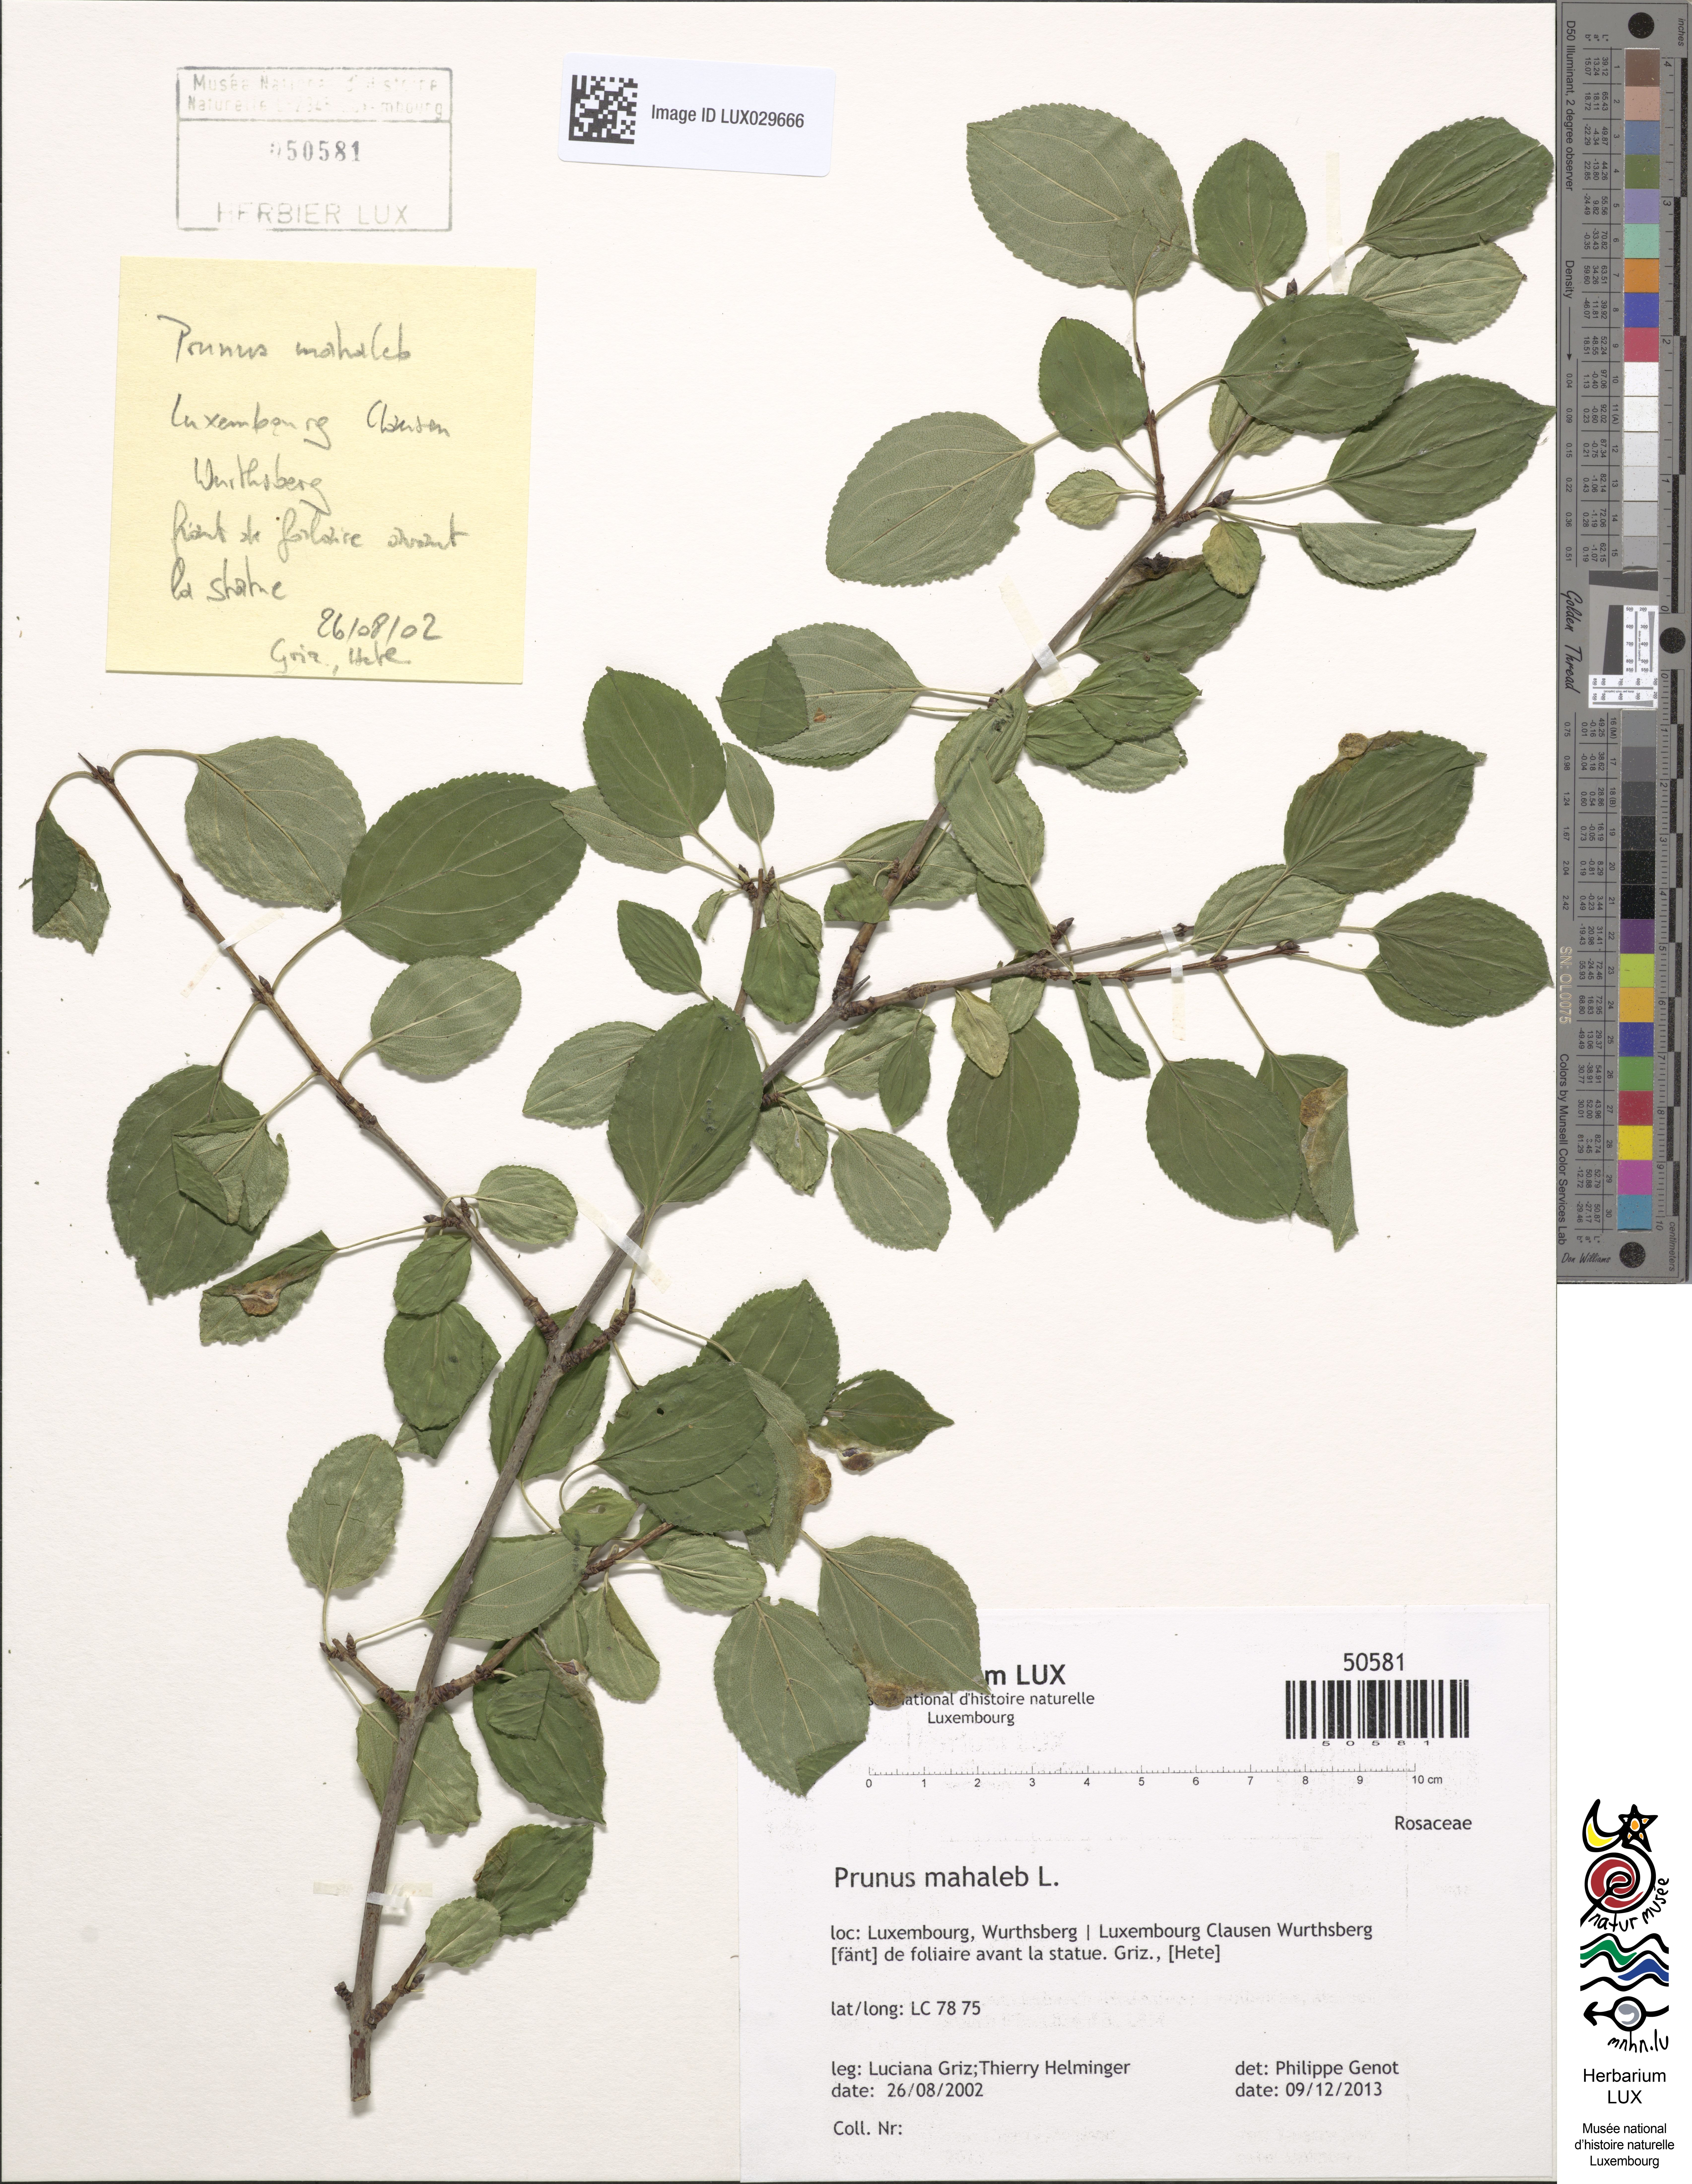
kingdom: Plantae
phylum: Tracheophyta
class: Magnoliopsida
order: Rosales
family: Rosaceae
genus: Prunus
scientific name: Prunus mahaleb
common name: Mahaleb cherry
